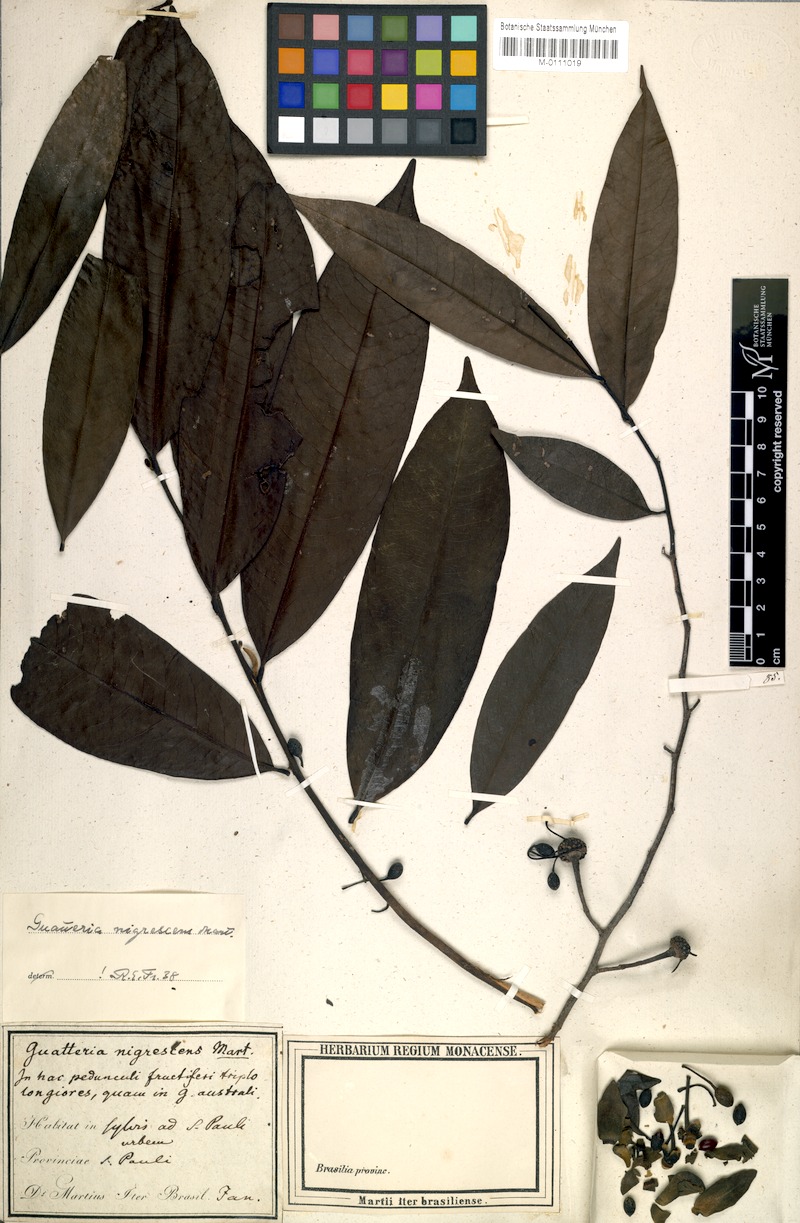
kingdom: Plantae
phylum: Tracheophyta
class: Magnoliopsida
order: Magnoliales
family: Annonaceae
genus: Guatteria
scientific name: Guatteria australis
